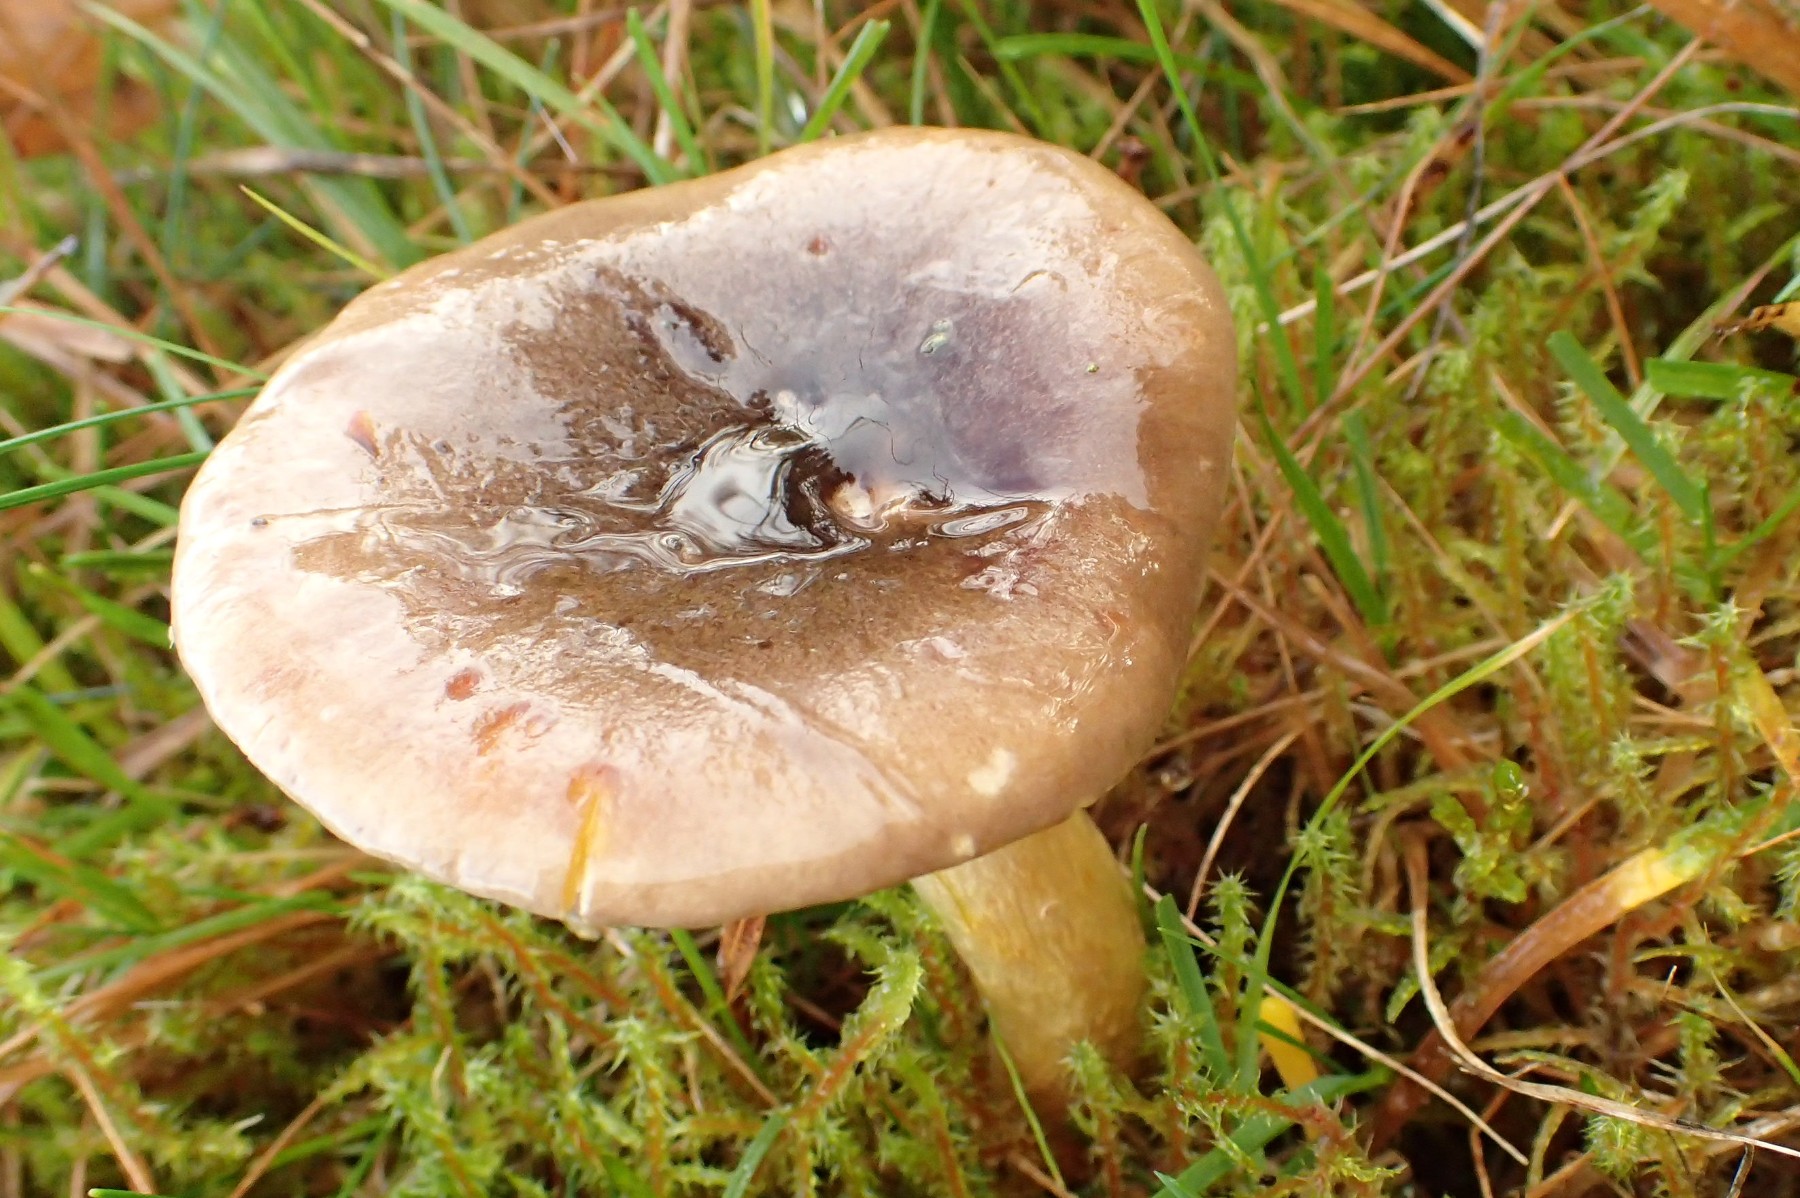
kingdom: Fungi
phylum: Basidiomycota
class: Agaricomycetes
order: Agaricales
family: Hygrophoraceae
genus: Hygrophorus
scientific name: Hygrophorus hypothejus
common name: frost-sneglehat
